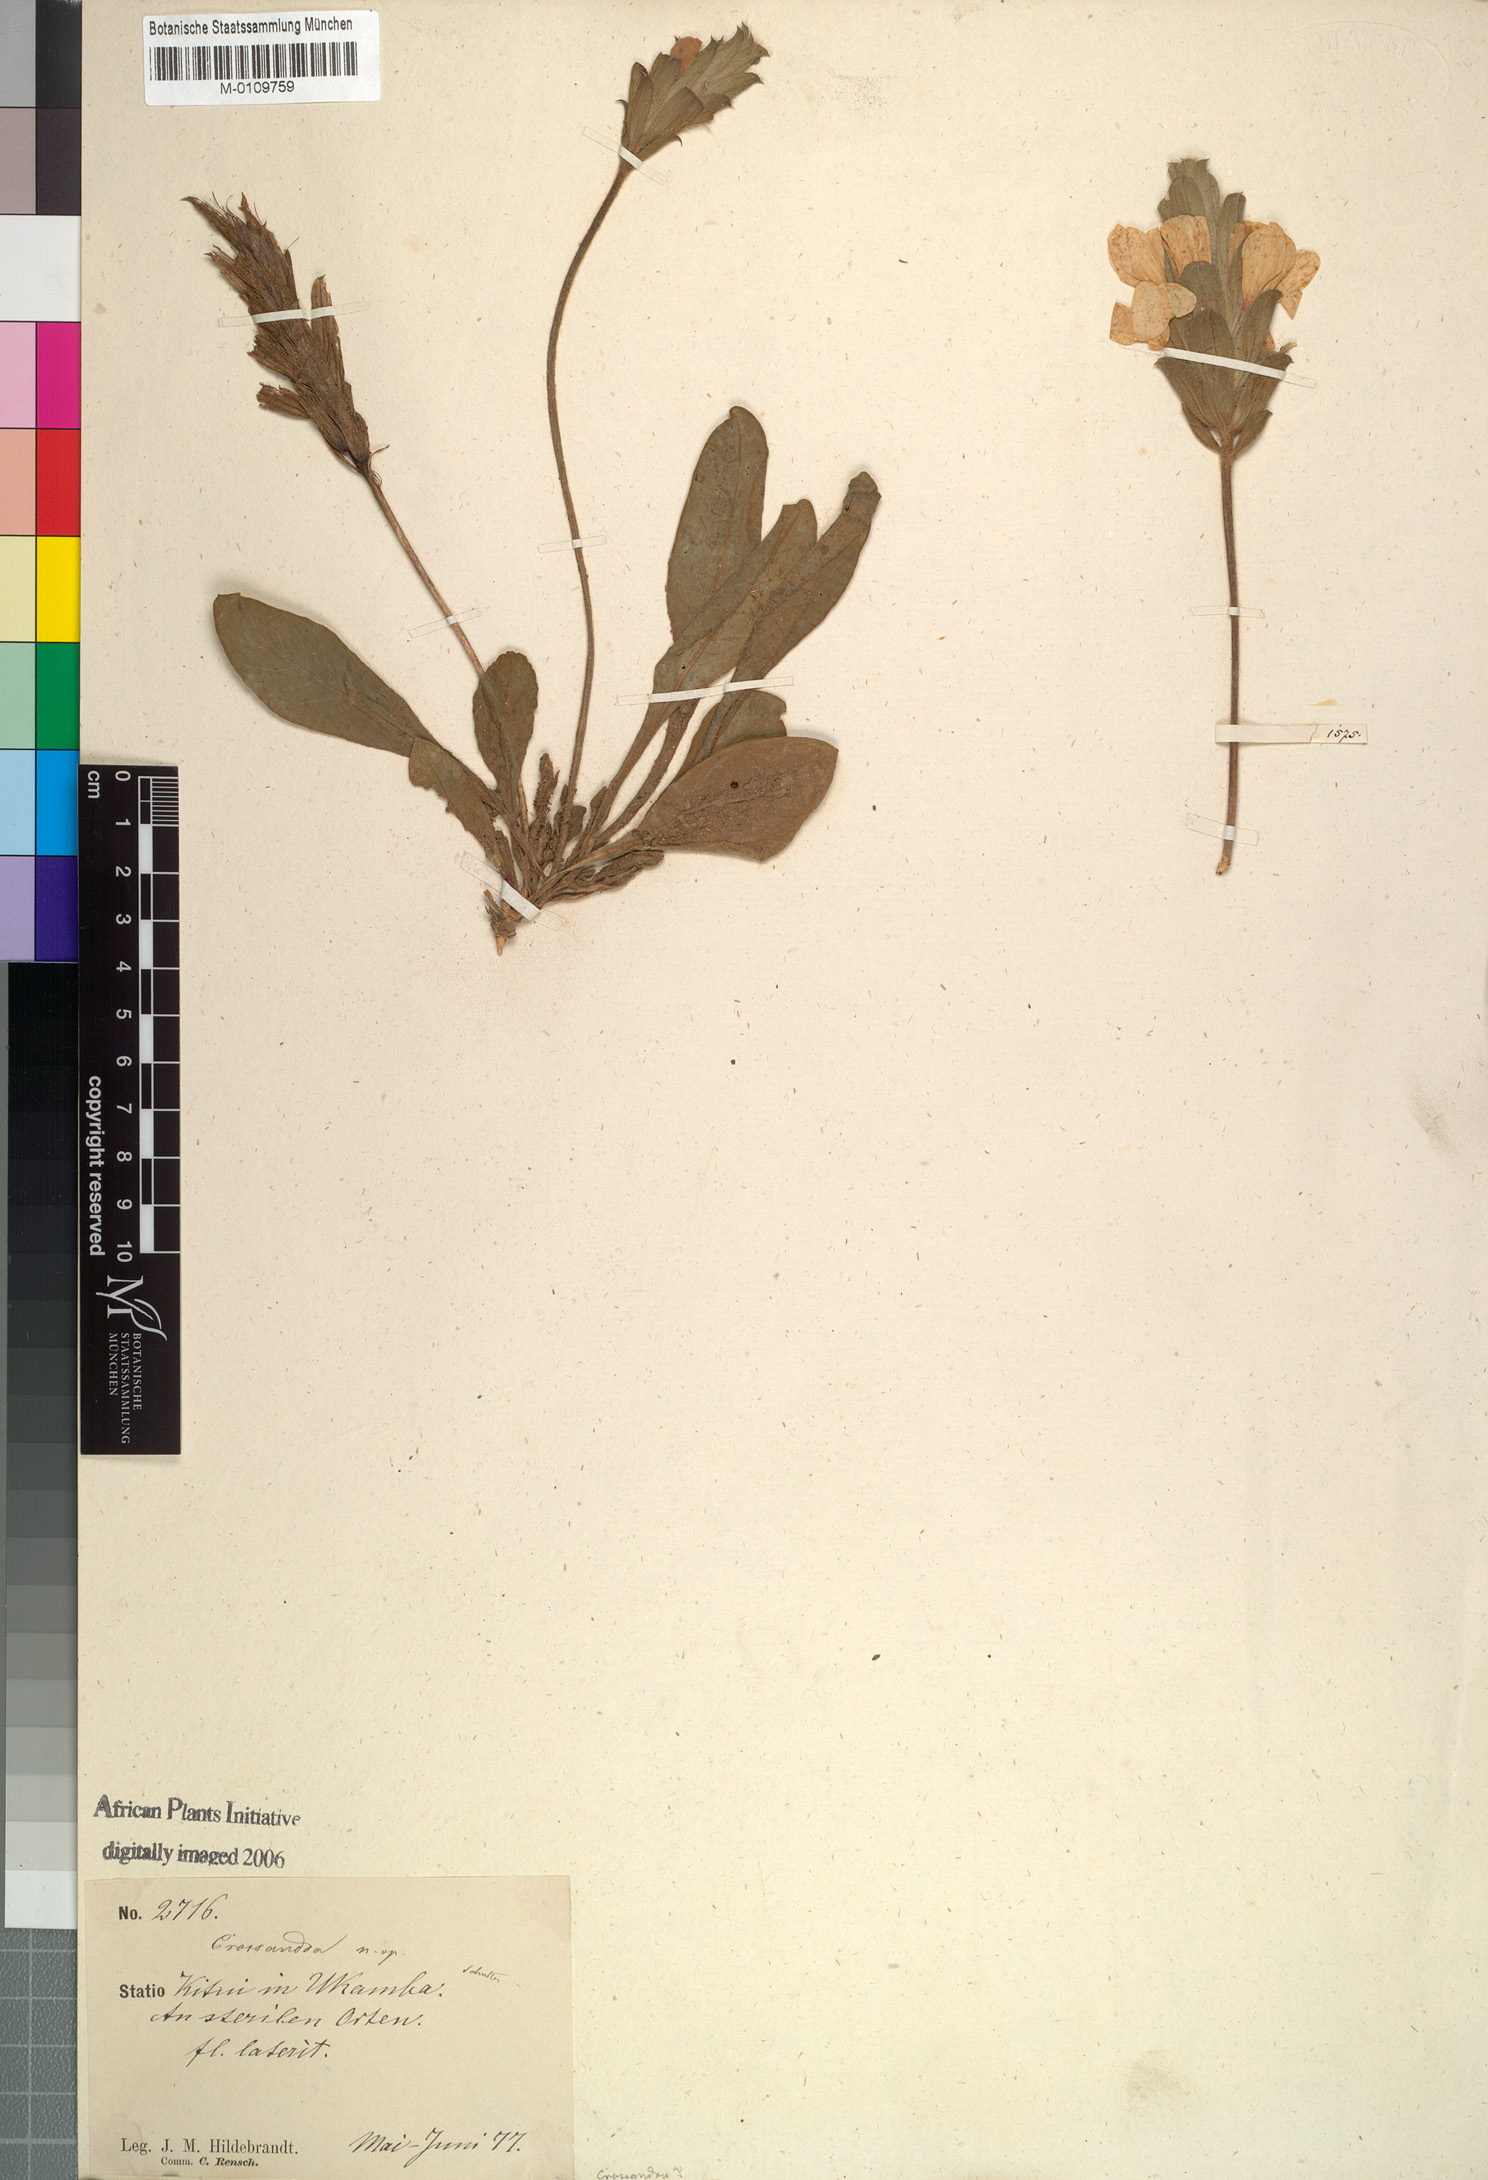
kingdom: Plantae
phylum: Tracheophyta
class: Magnoliopsida
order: Lamiales
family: Acanthaceae
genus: Crossandra
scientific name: Crossandra
